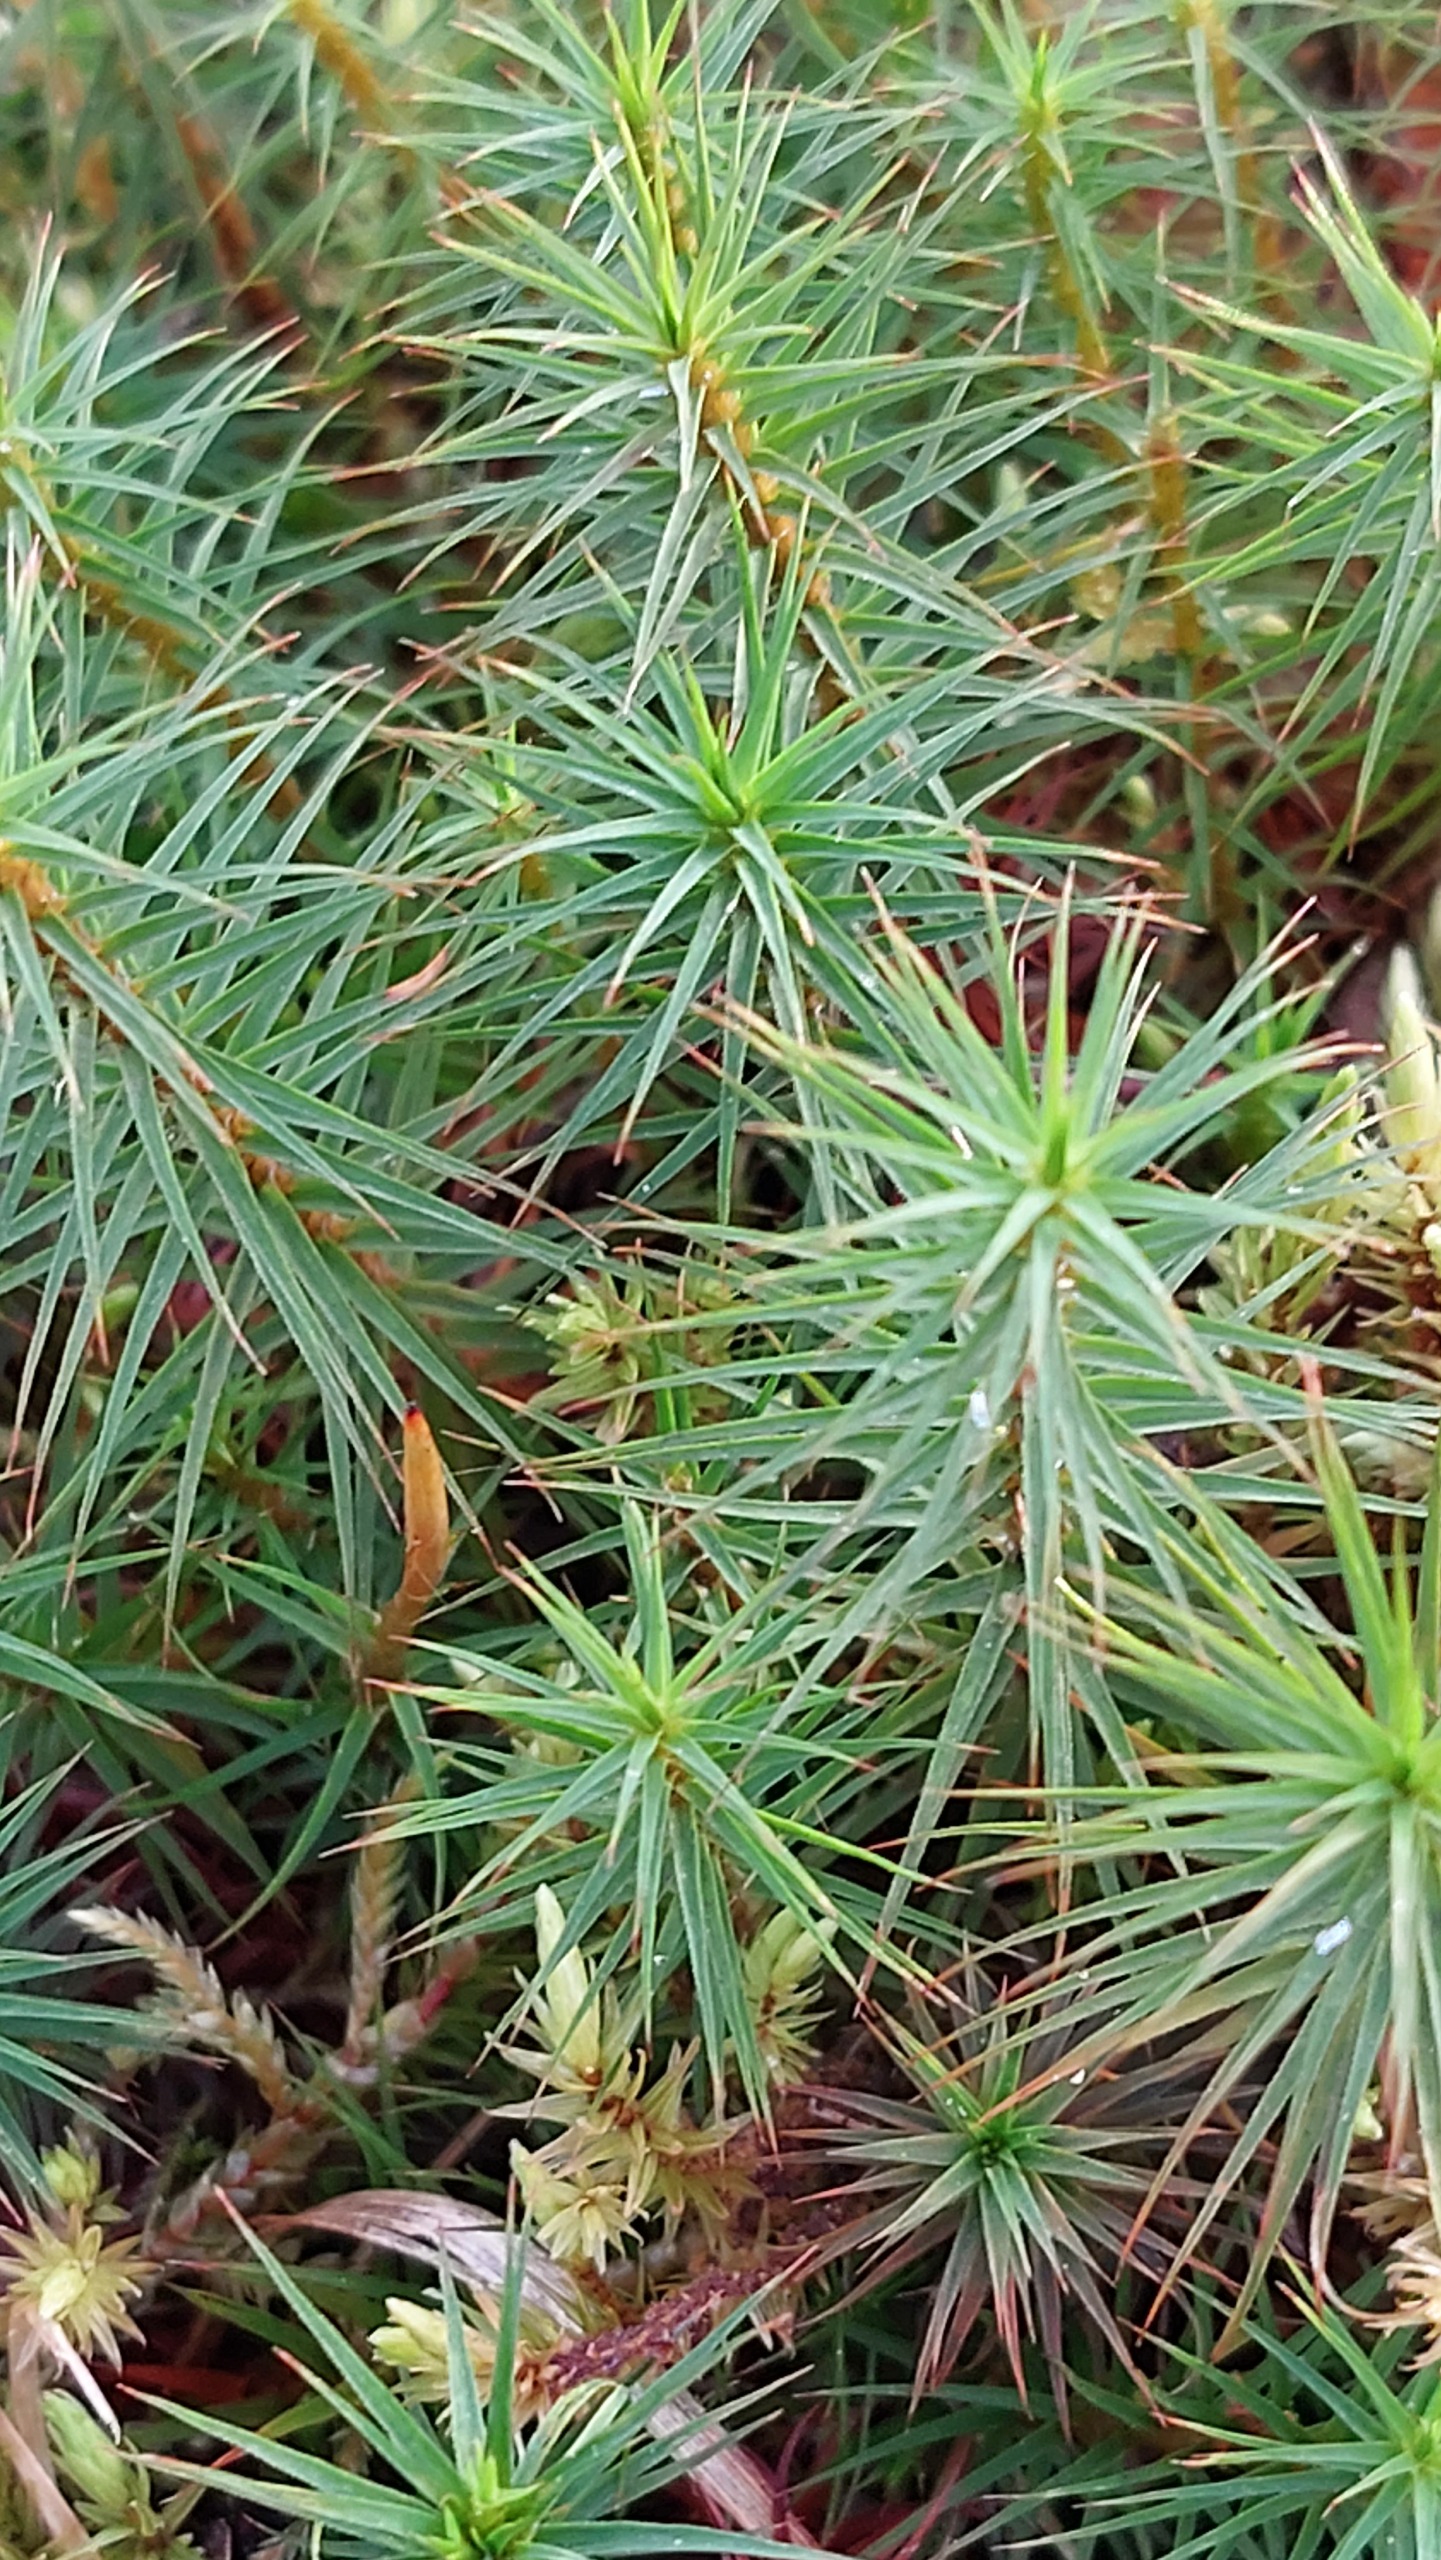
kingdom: Plantae
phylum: Bryophyta
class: Polytrichopsida
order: Polytrichales
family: Polytrichaceae
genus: Polytrichum
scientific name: Polytrichum commune
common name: Almindelig jomfruhår
